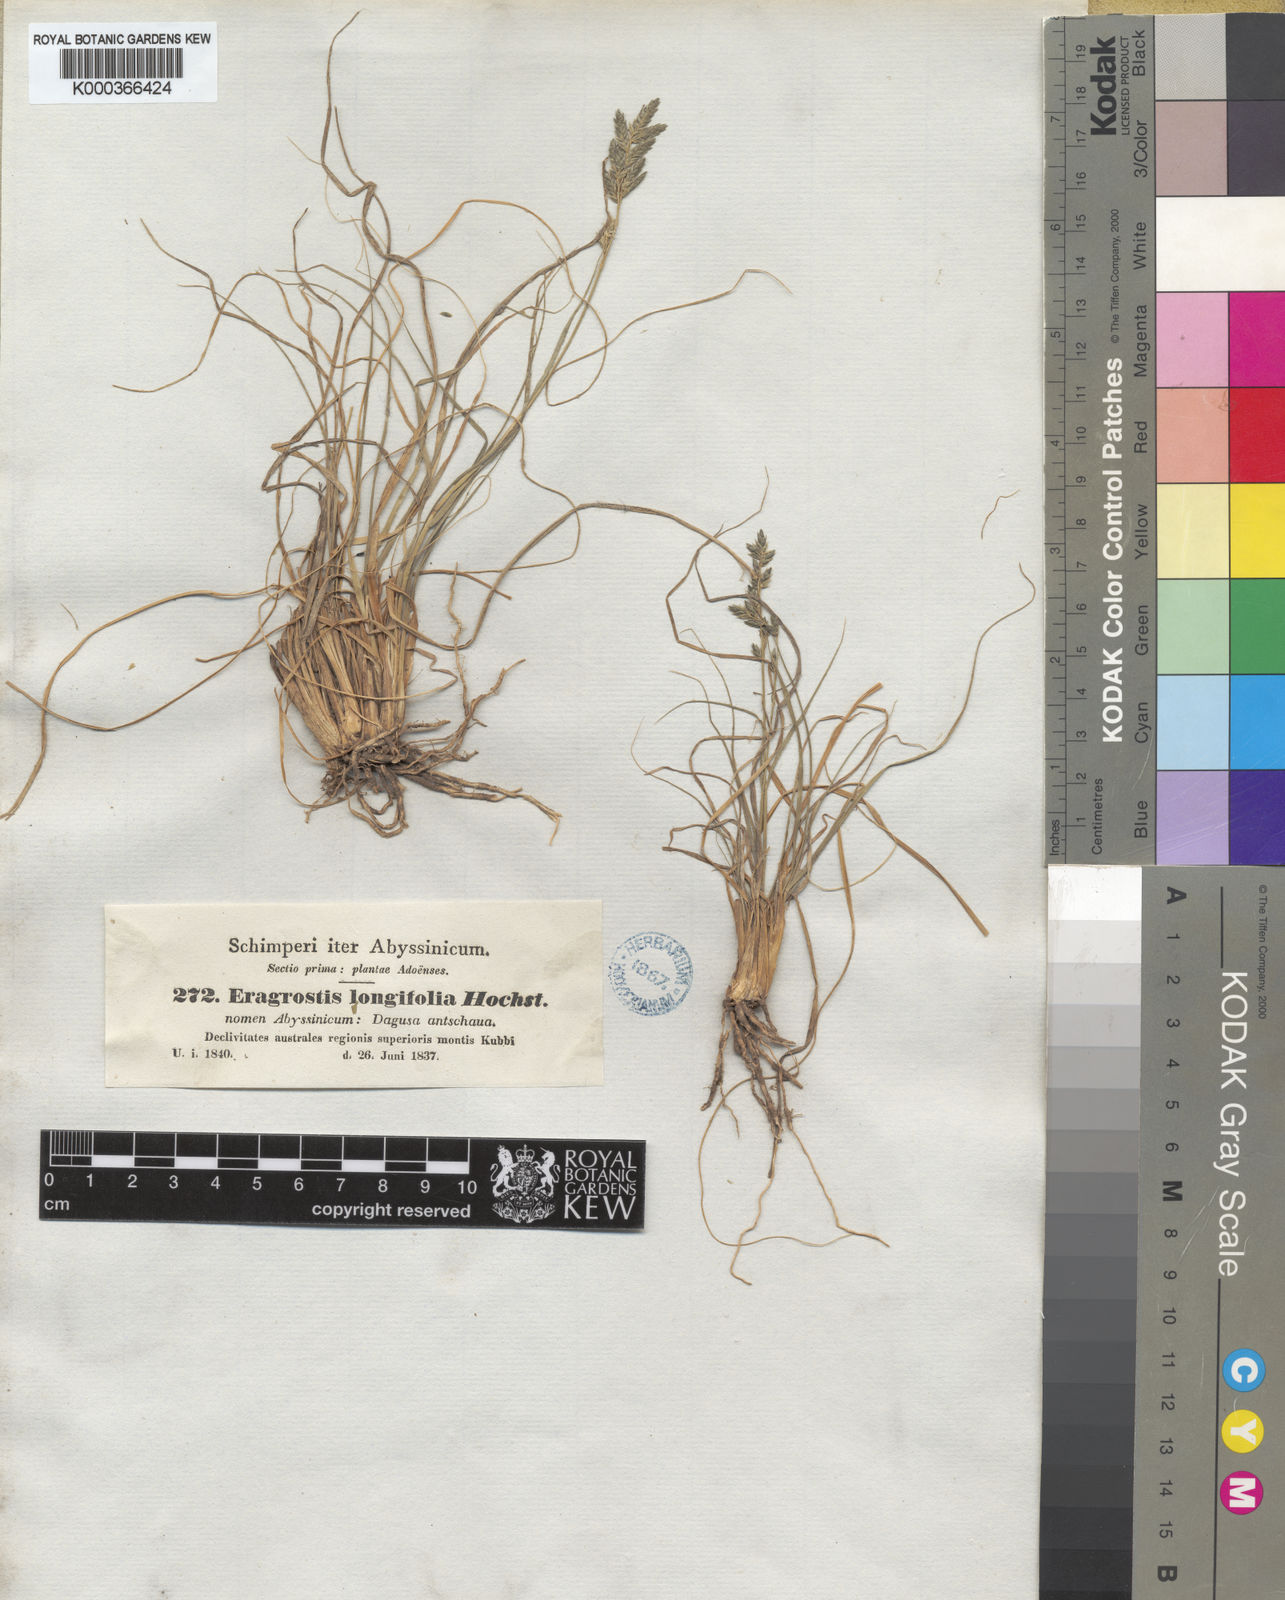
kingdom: Plantae
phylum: Tracheophyta
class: Liliopsida
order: Poales
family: Poaceae
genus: Eragrostis
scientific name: Eragrostis longifolia
